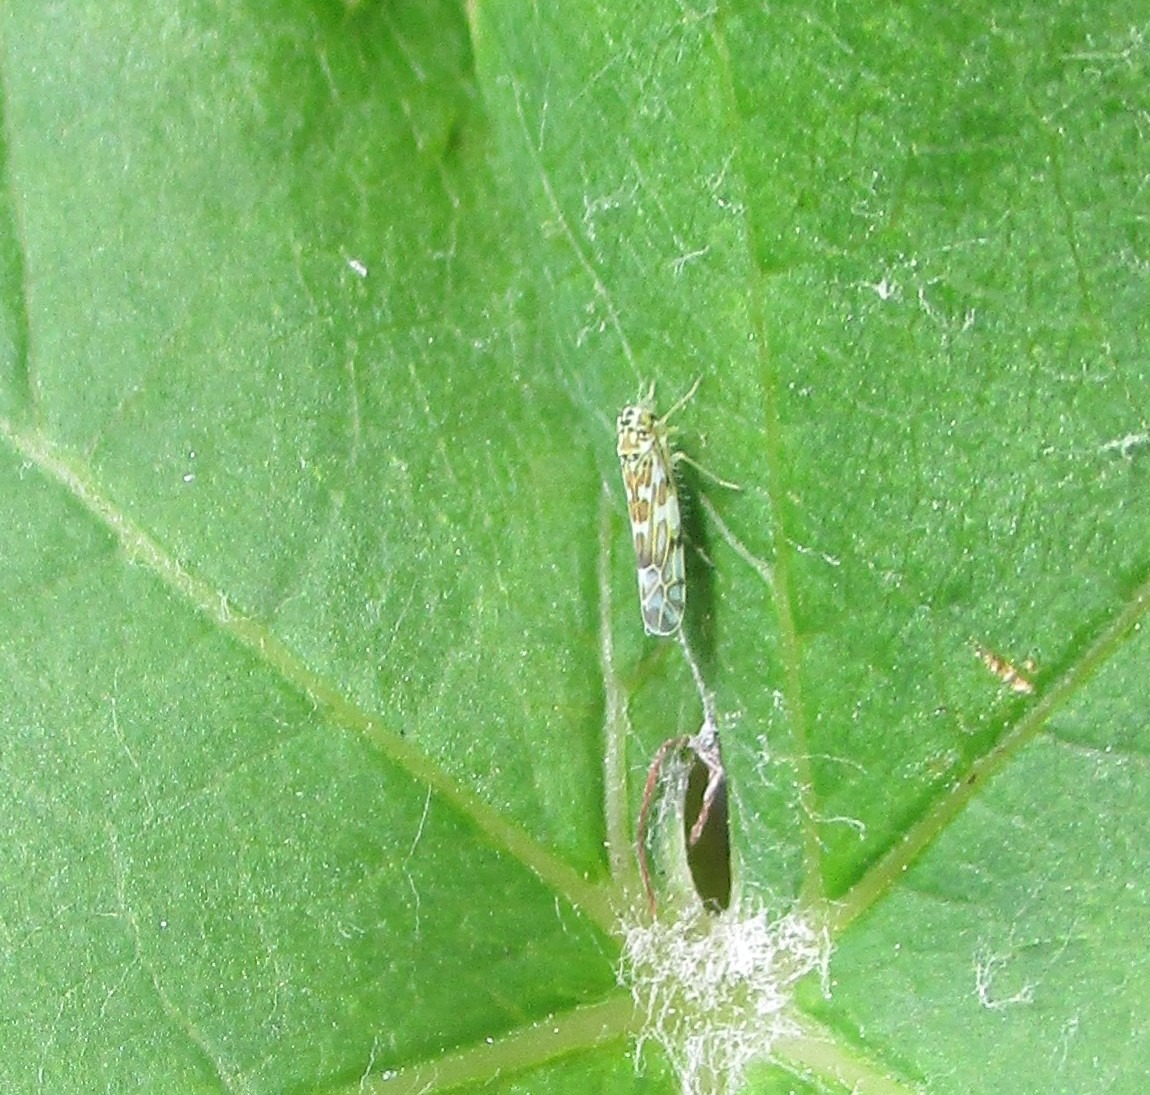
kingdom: Animalia
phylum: Arthropoda
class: Insecta
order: Hemiptera
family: Cicadellidae
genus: Eupteryx
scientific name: Eupteryx florida
